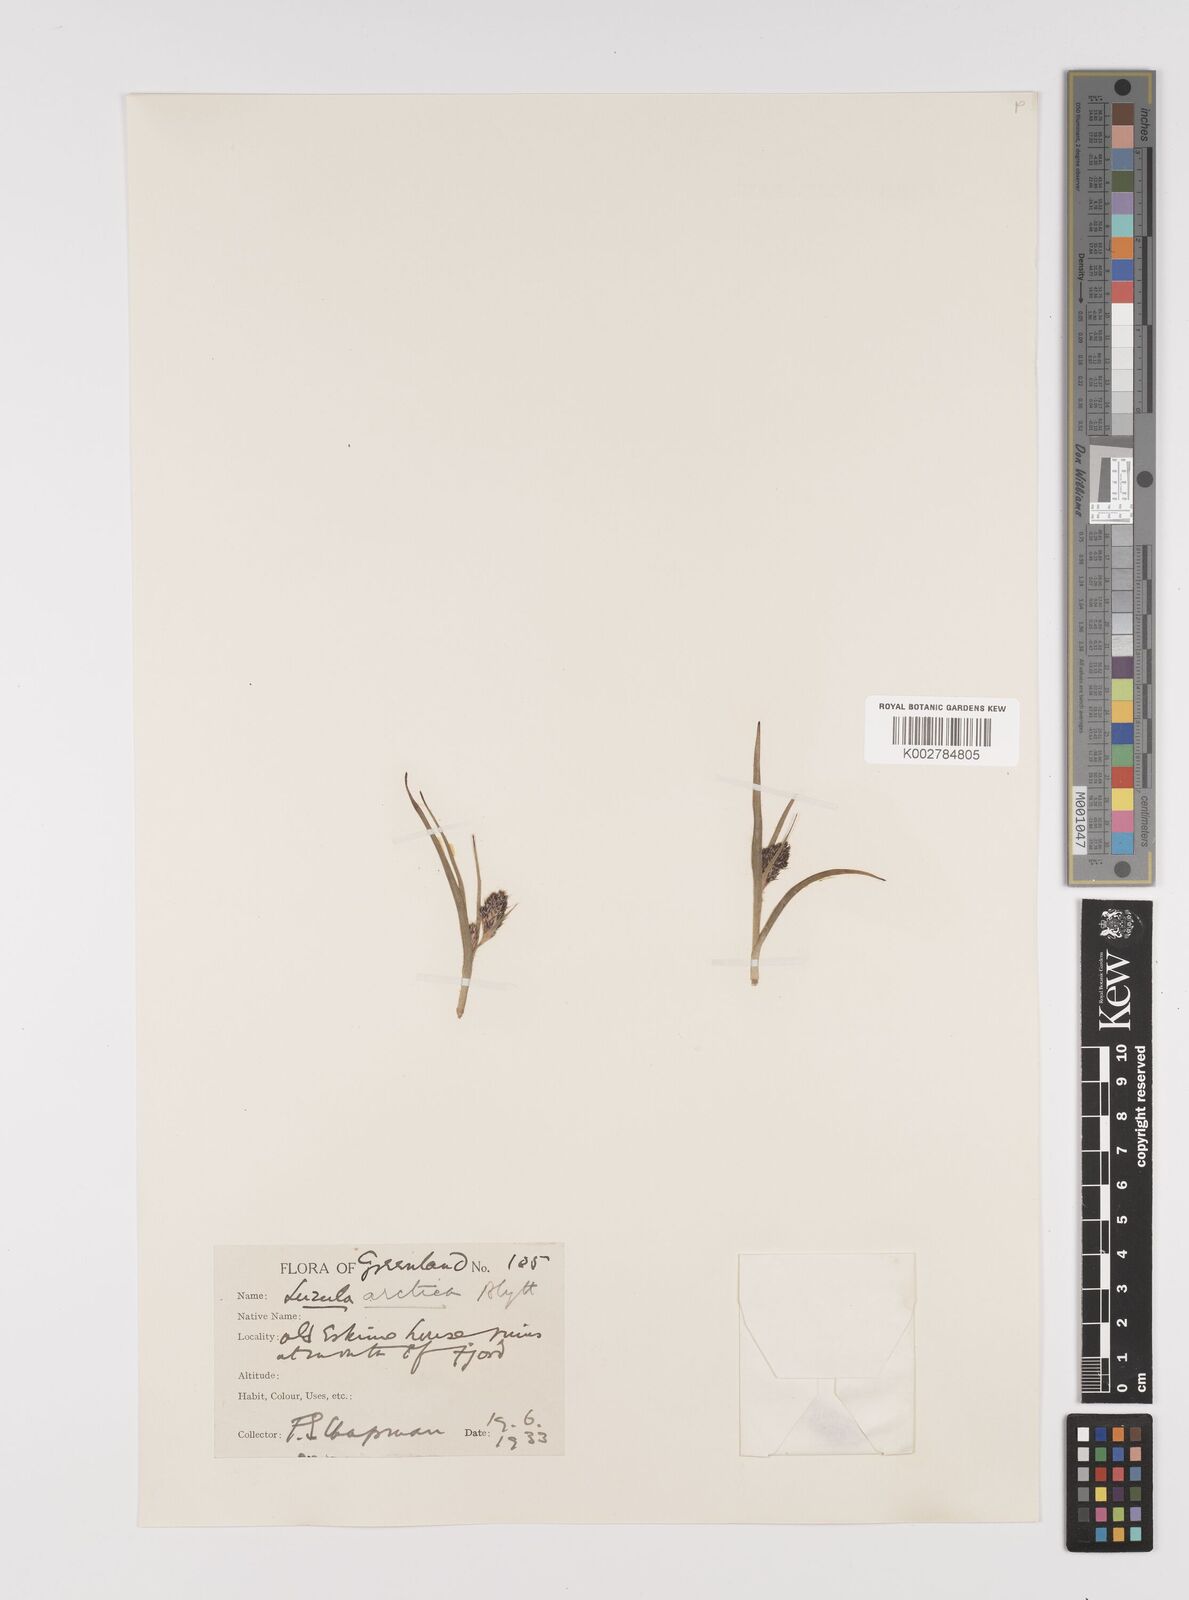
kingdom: Plantae
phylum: Tracheophyta
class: Liliopsida
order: Poales
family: Juncaceae
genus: Luzula
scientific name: Luzula confusa
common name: Northern wood rush
